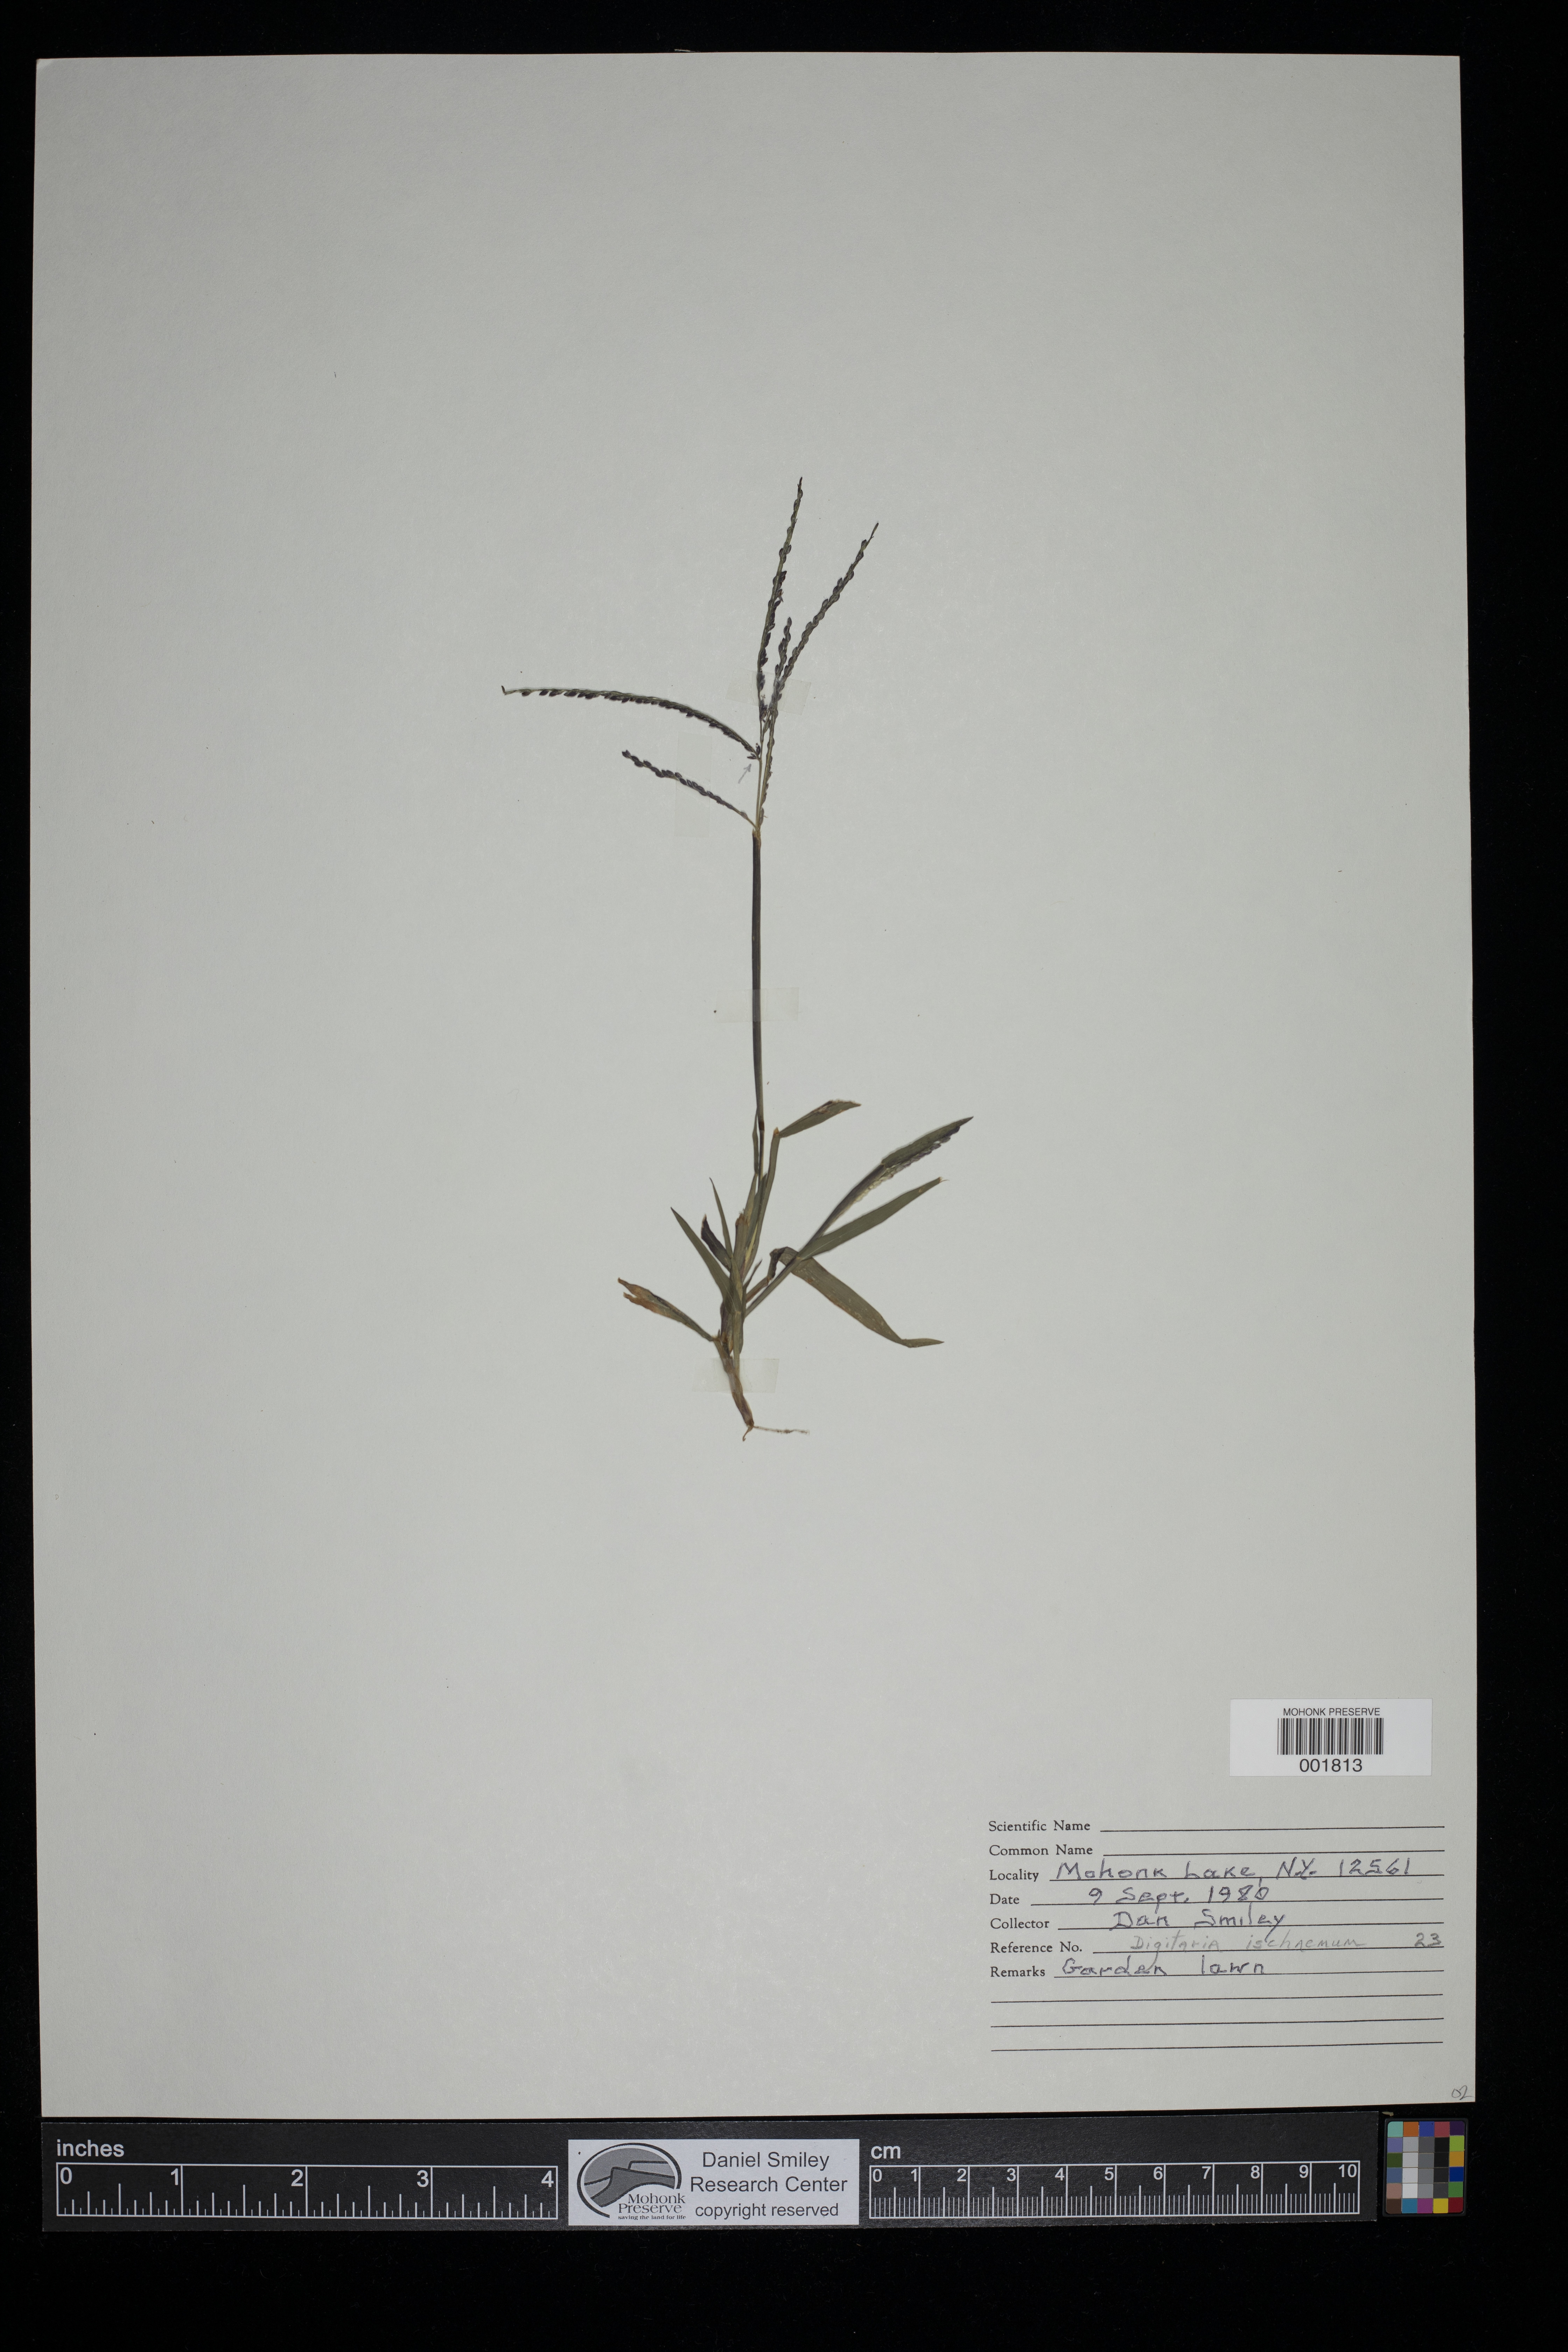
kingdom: Plantae
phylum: Tracheophyta
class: Liliopsida
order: Poales
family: Poaceae
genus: Digitaria
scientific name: Digitaria ischaemum
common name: Smooth crabgrass
